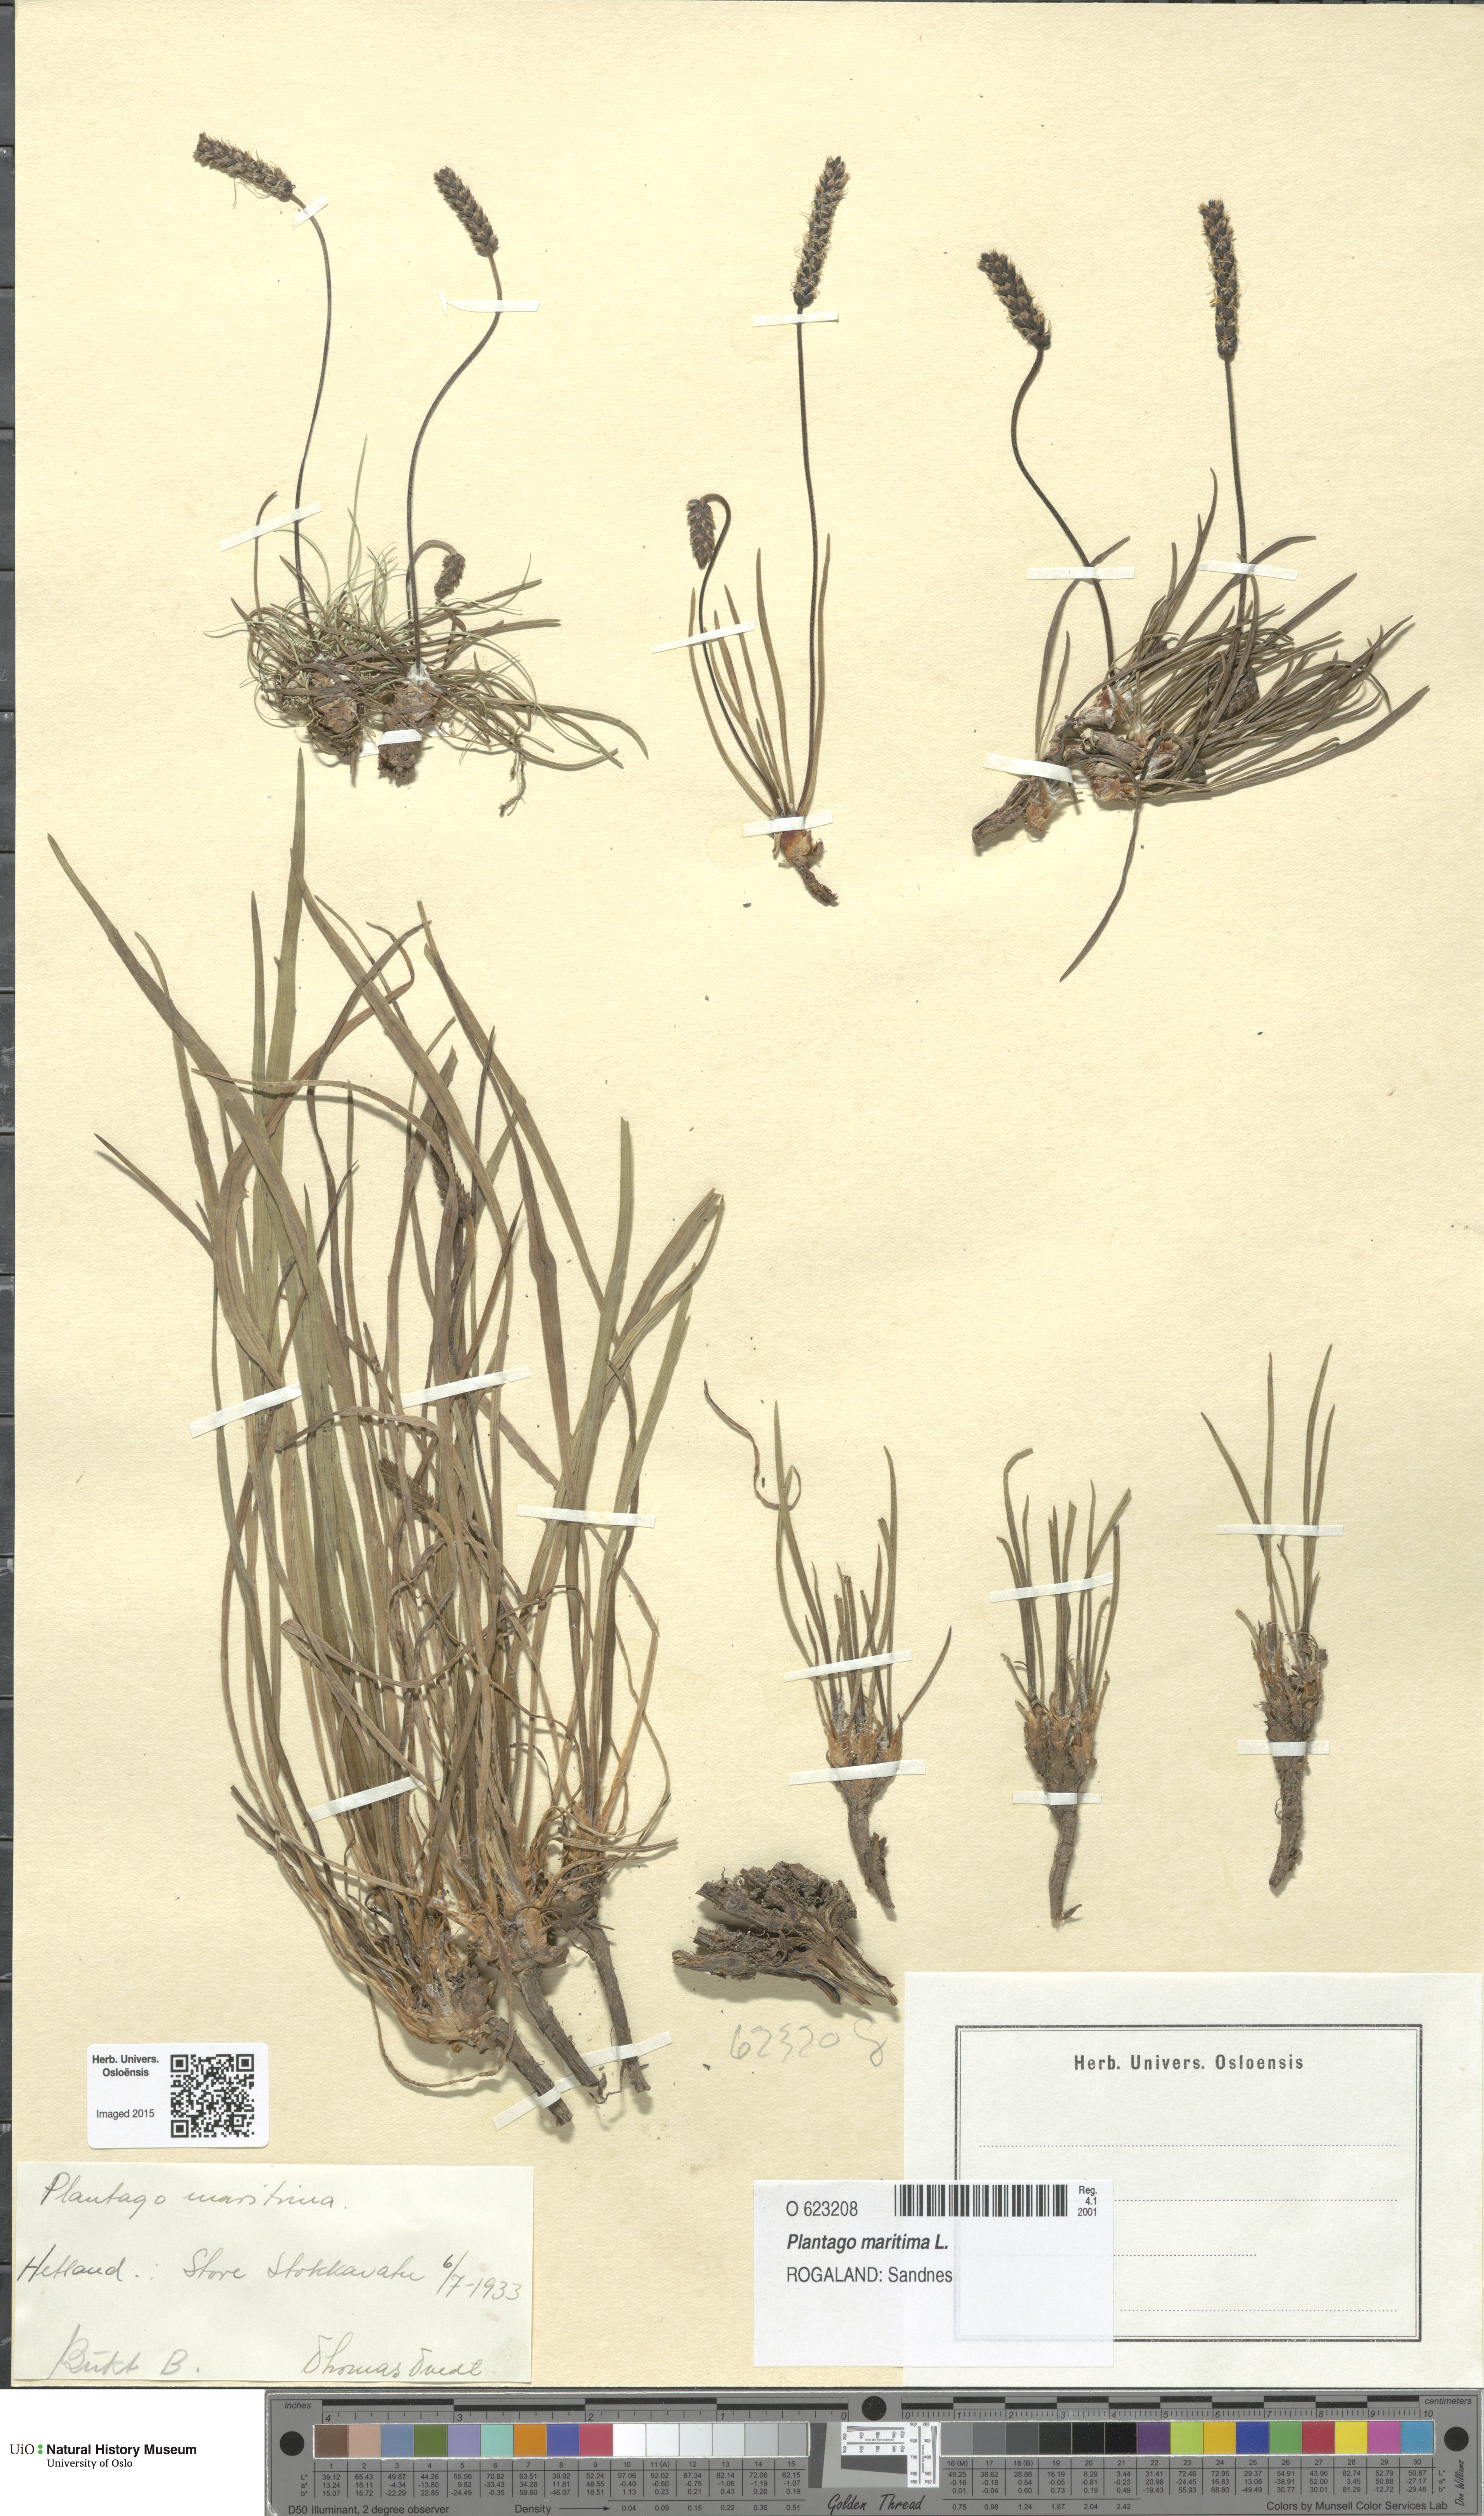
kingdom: Plantae
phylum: Tracheophyta
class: Magnoliopsida
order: Lamiales
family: Plantaginaceae
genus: Plantago
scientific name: Plantago maritima
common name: Sea plantain
